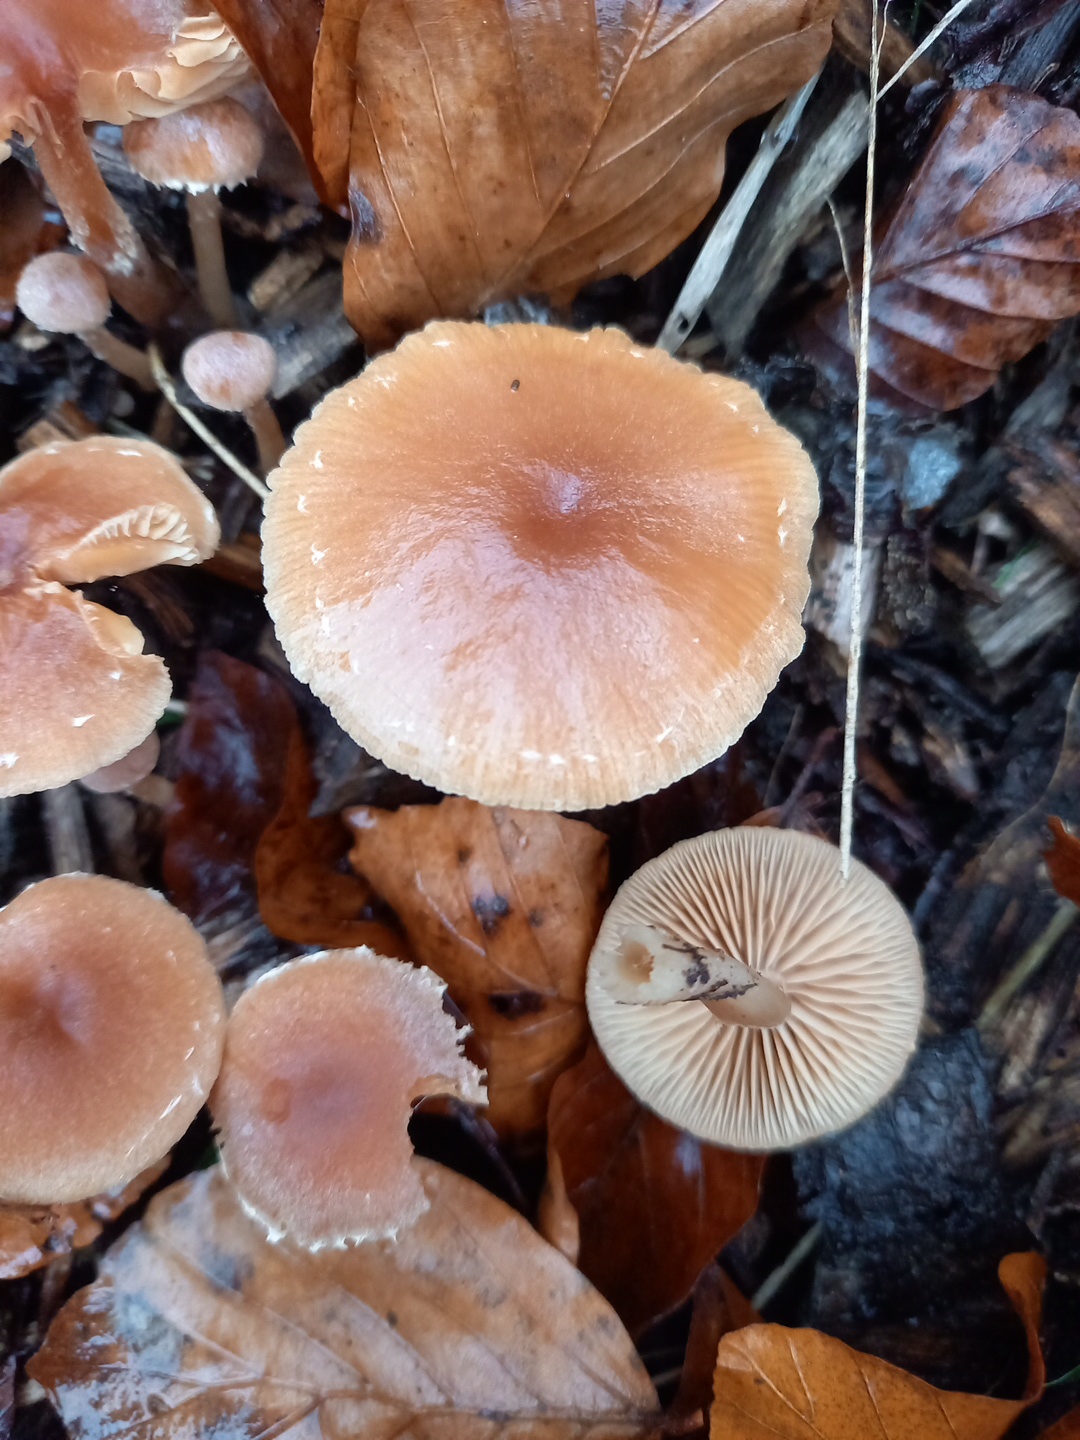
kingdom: Fungi
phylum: Basidiomycota
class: Agaricomycetes
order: Agaricales
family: Tubariaceae
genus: Tubaria
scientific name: Tubaria furfuracea
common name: kliddet fnughat
